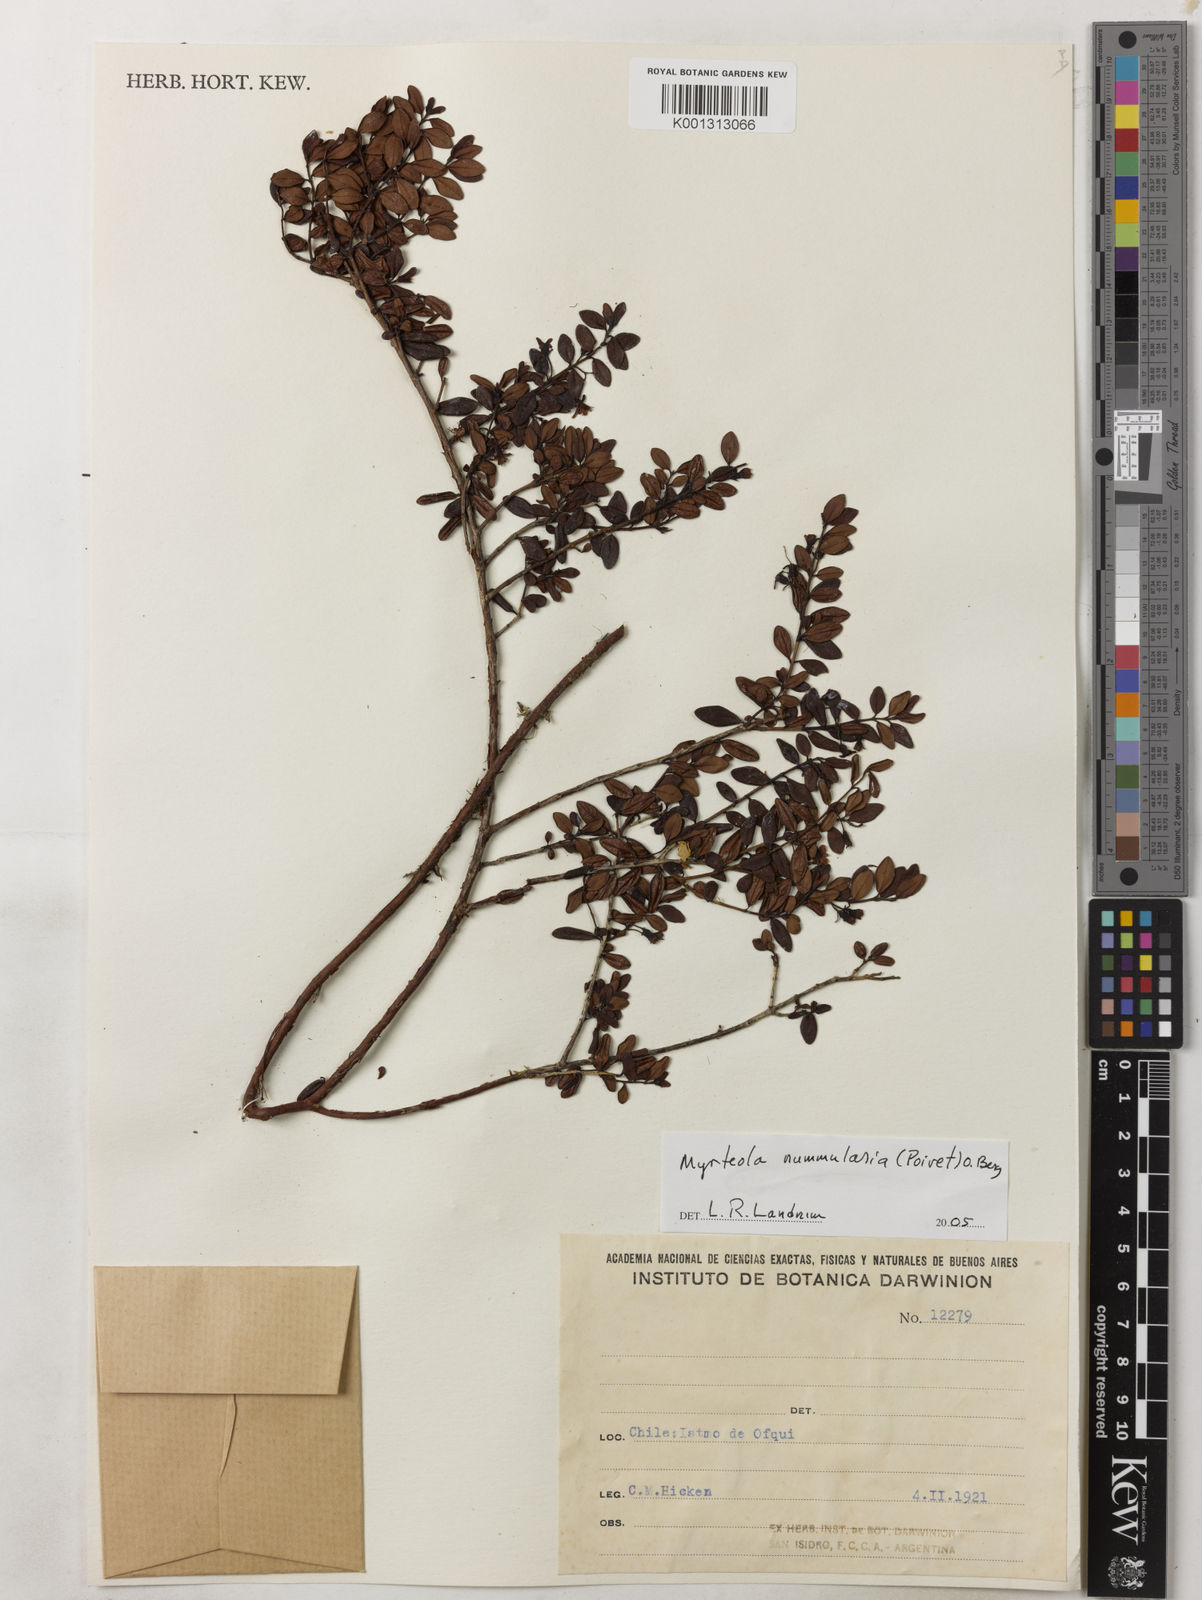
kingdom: Plantae
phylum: Tracheophyta
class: Magnoliopsida
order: Myrtales
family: Myrtaceae
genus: Myrteola
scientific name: Myrteola nummularia
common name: Cranberry-myrtle
